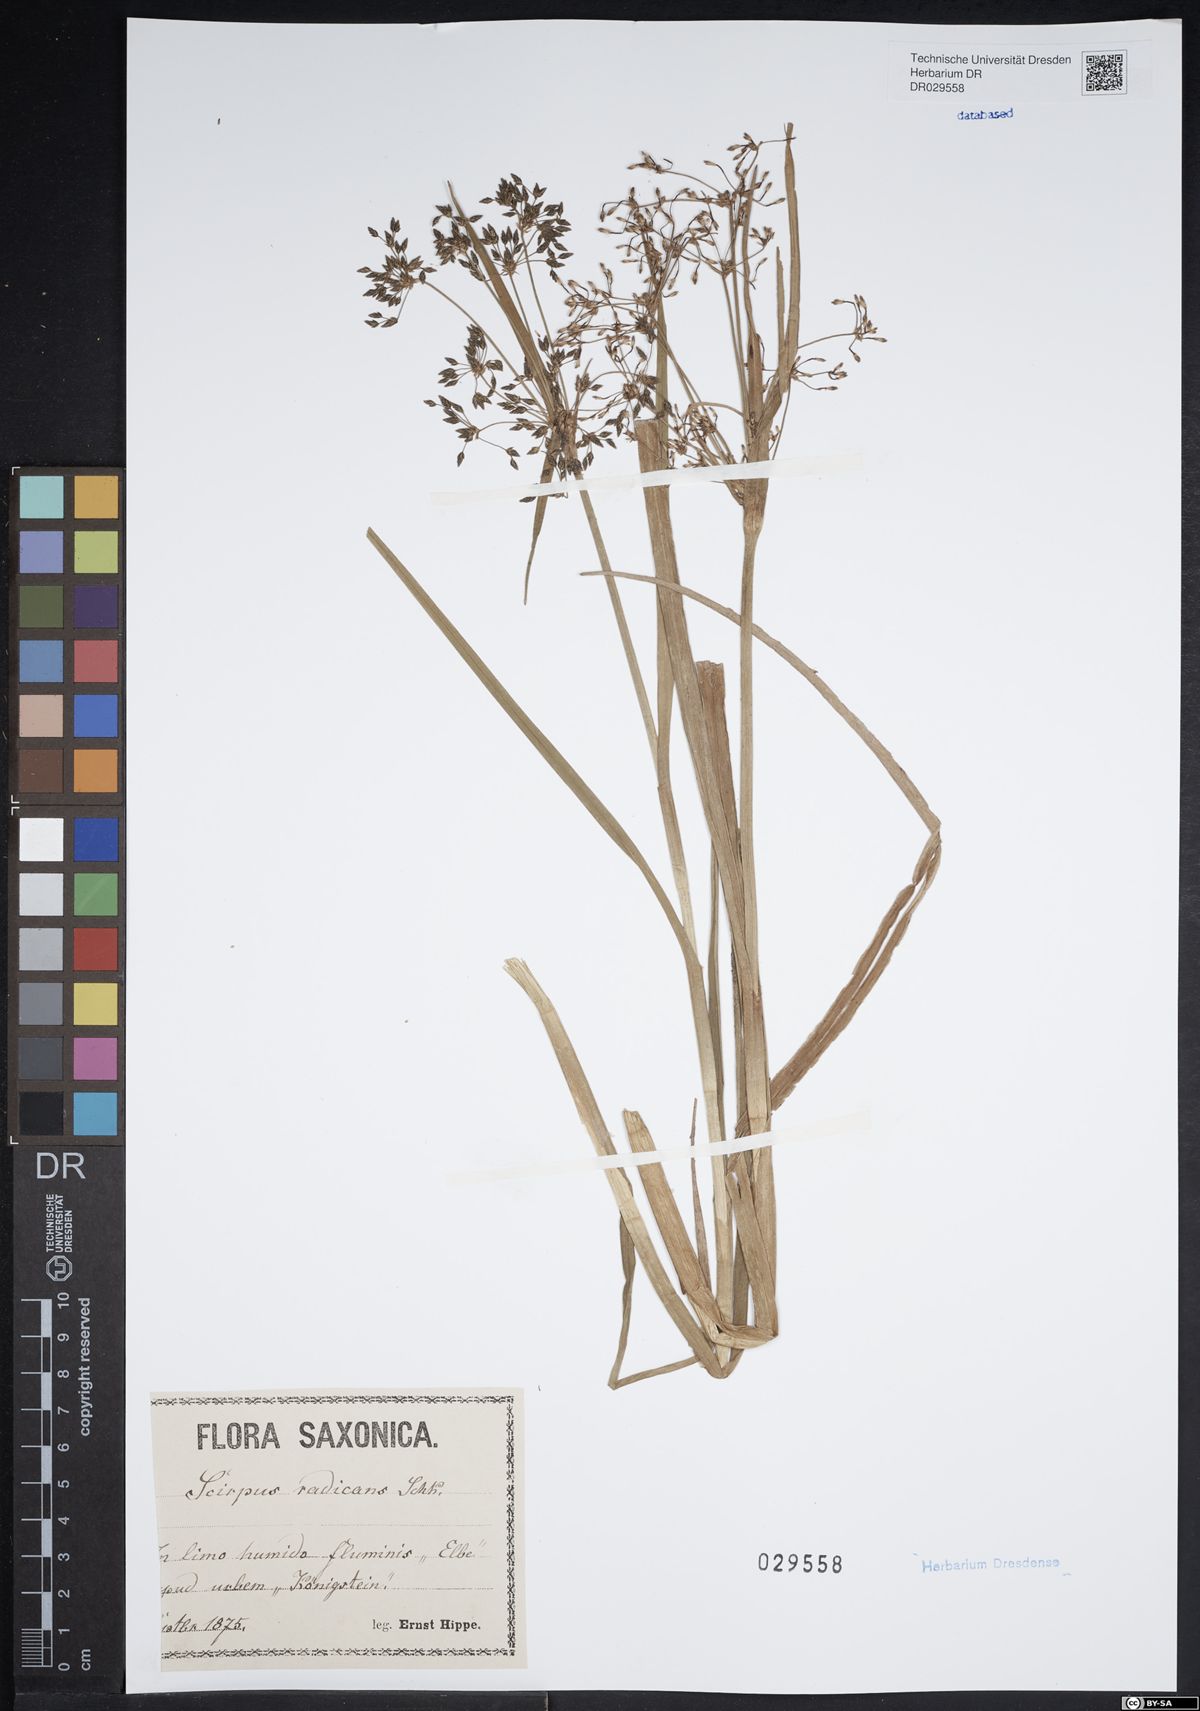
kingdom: Plantae
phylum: Tracheophyta
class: Liliopsida
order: Poales
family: Cyperaceae
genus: Scirpus
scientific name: Scirpus radicans
